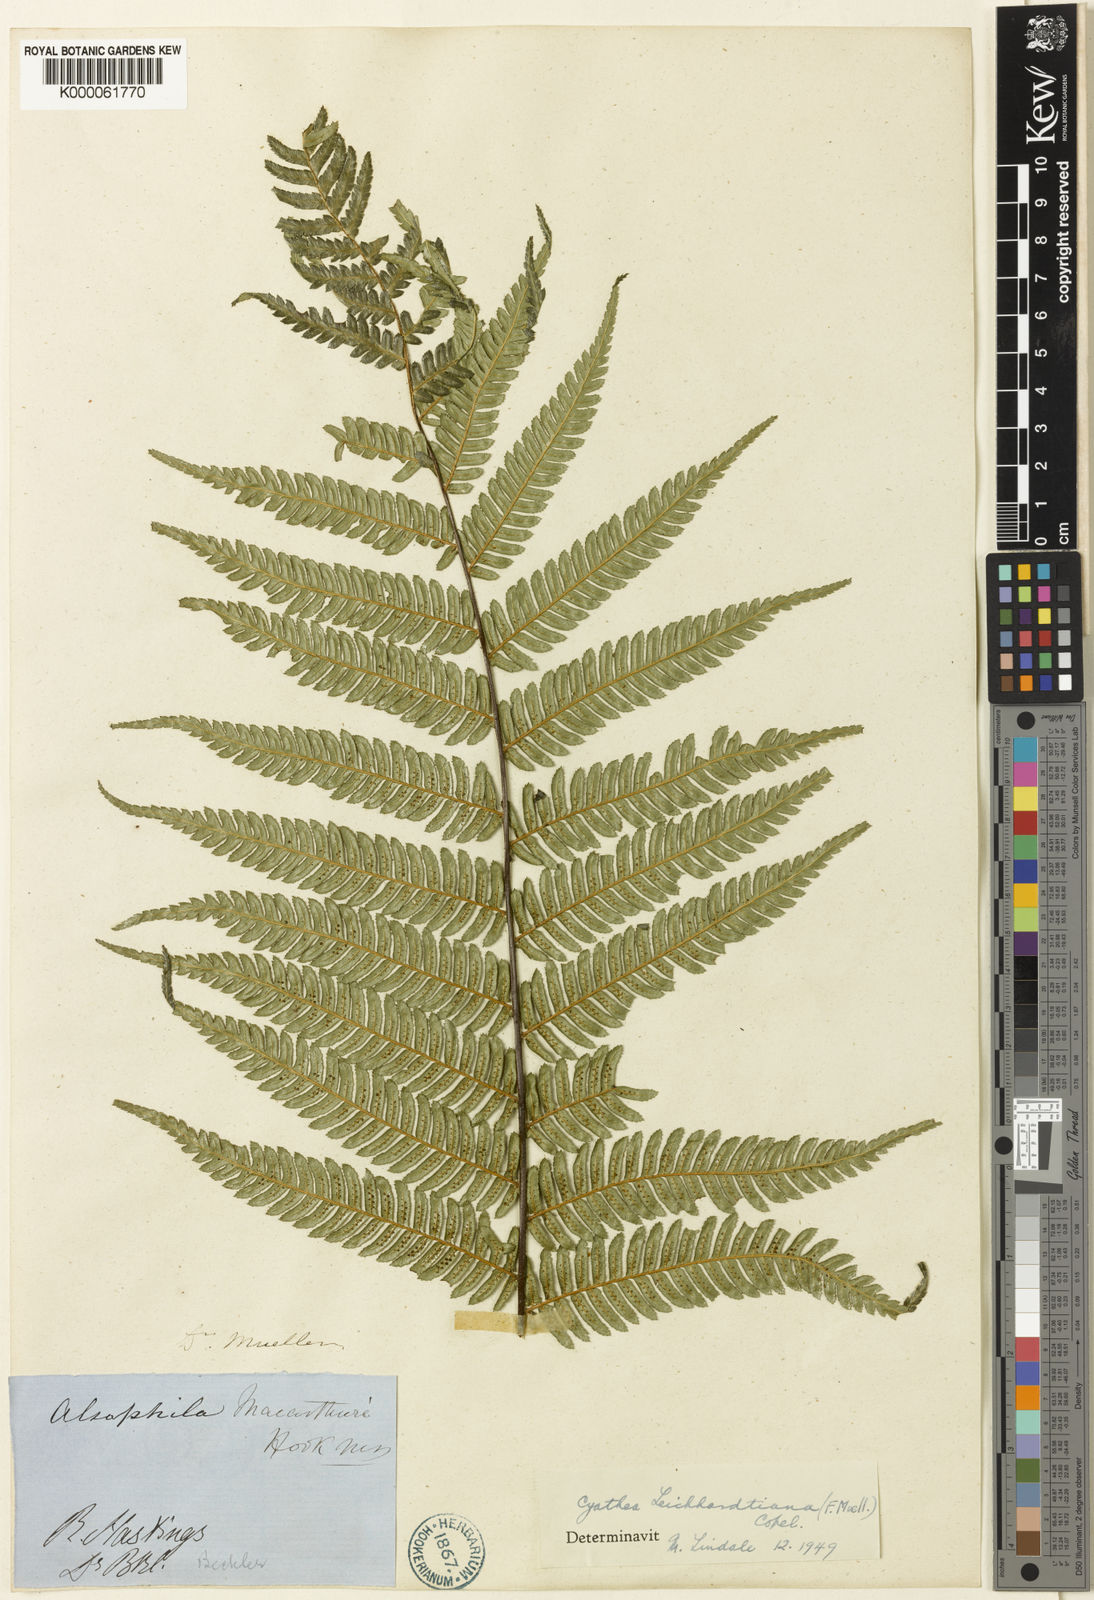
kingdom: Plantae
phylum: Tracheophyta
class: Polypodiopsida
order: Cyatheales
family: Cyatheaceae
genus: Alsophila
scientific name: Alsophila leichhardtiana
